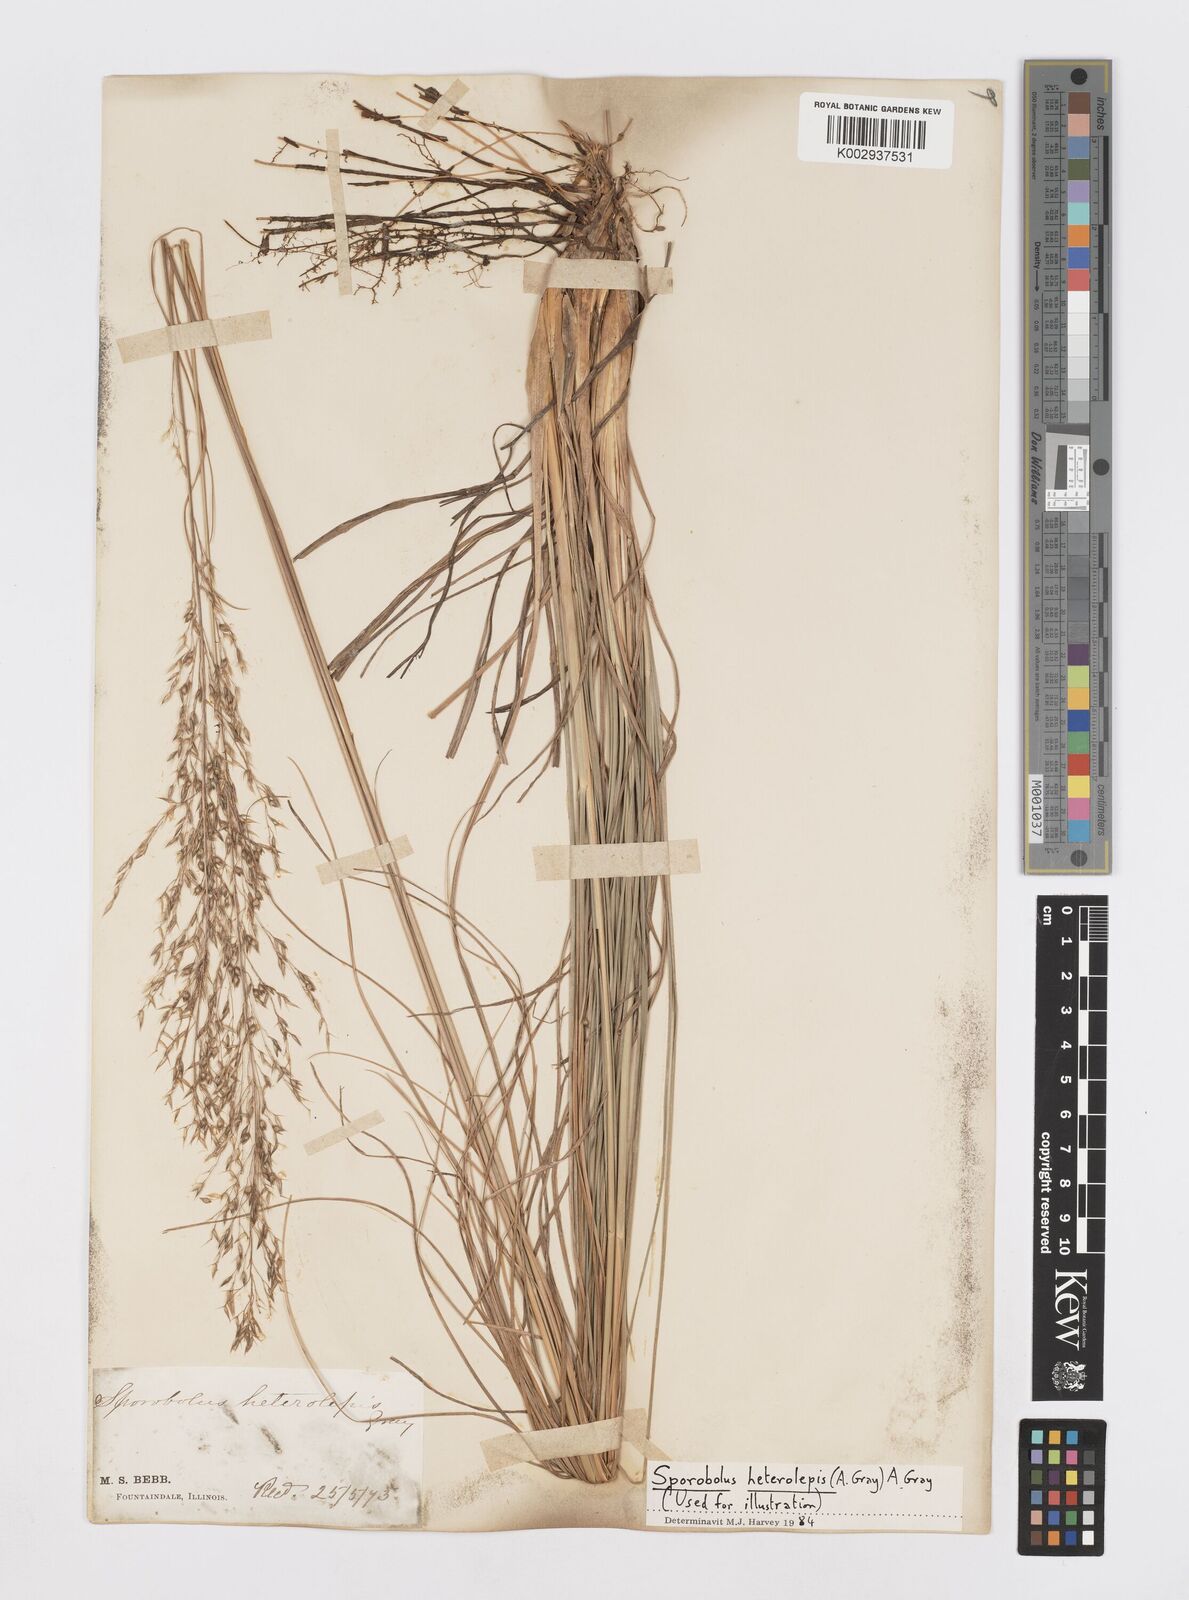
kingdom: Plantae
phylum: Tracheophyta
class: Liliopsida
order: Poales
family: Poaceae
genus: Sporobolus
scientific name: Sporobolus heterolepis
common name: Prairie dropseed
